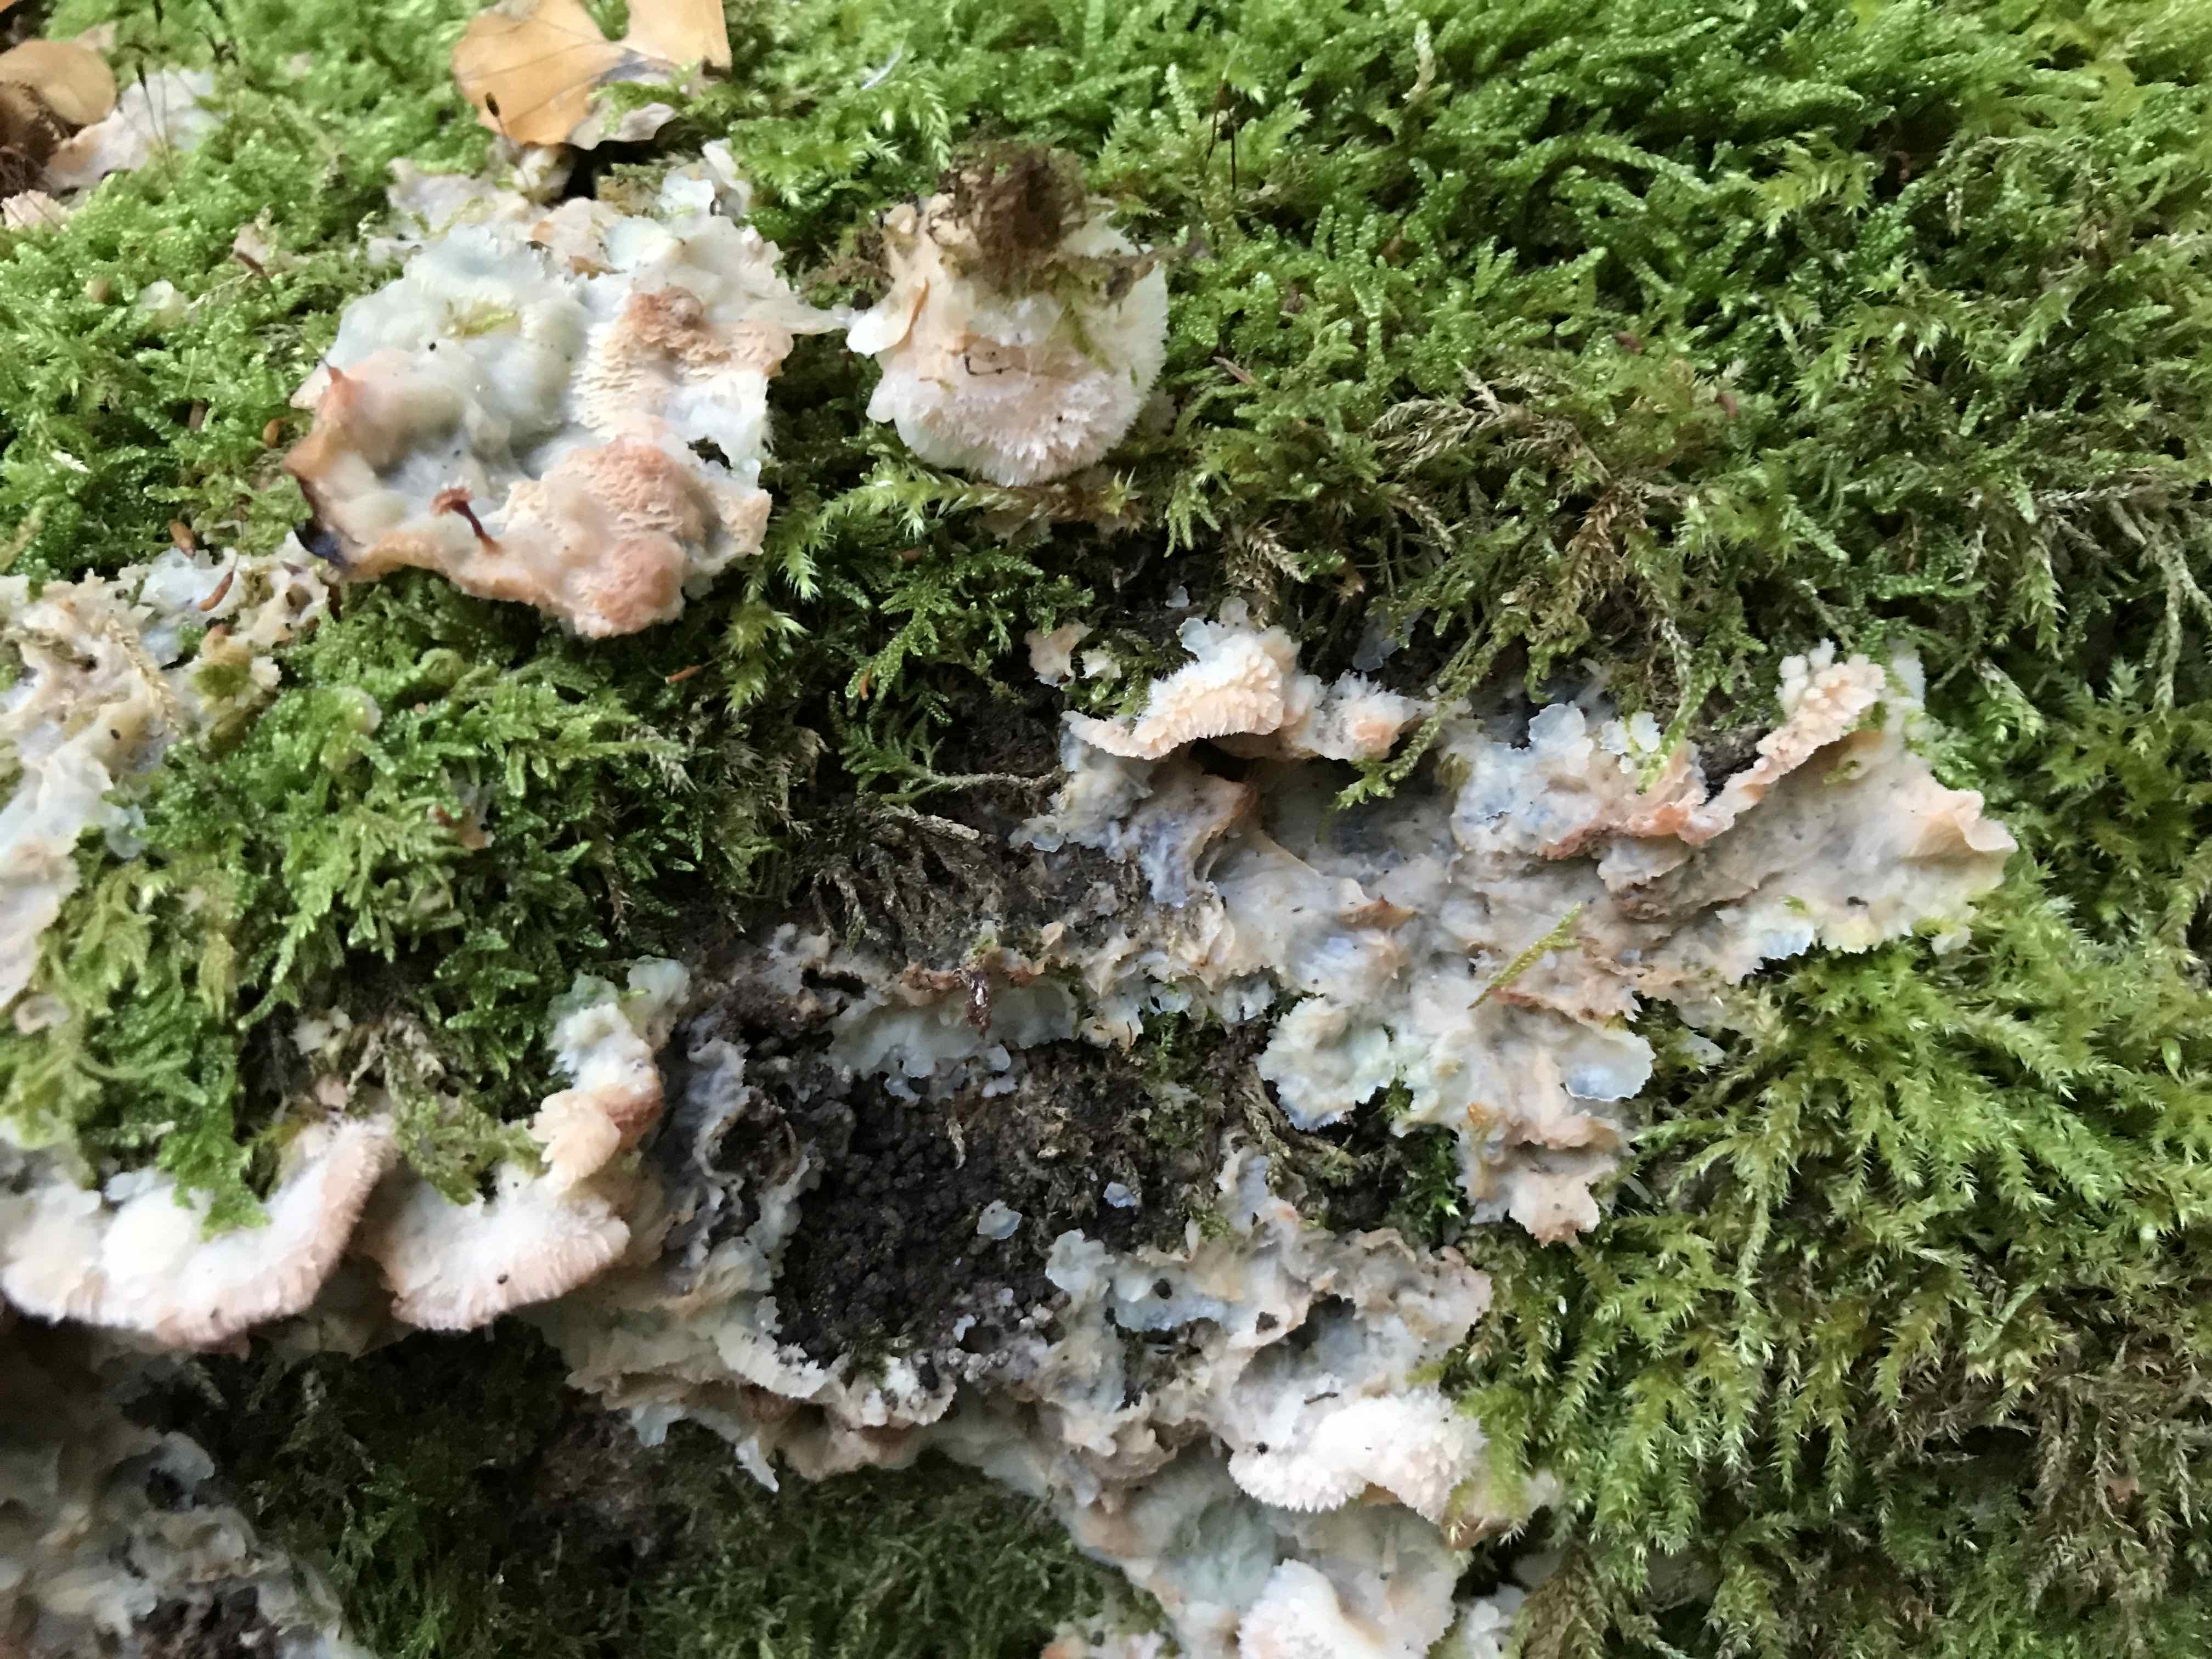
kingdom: Fungi
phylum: Basidiomycota
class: Agaricomycetes
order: Polyporales
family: Meruliaceae
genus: Phlebia
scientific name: Phlebia tremellosa
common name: bævrende åresvamp
